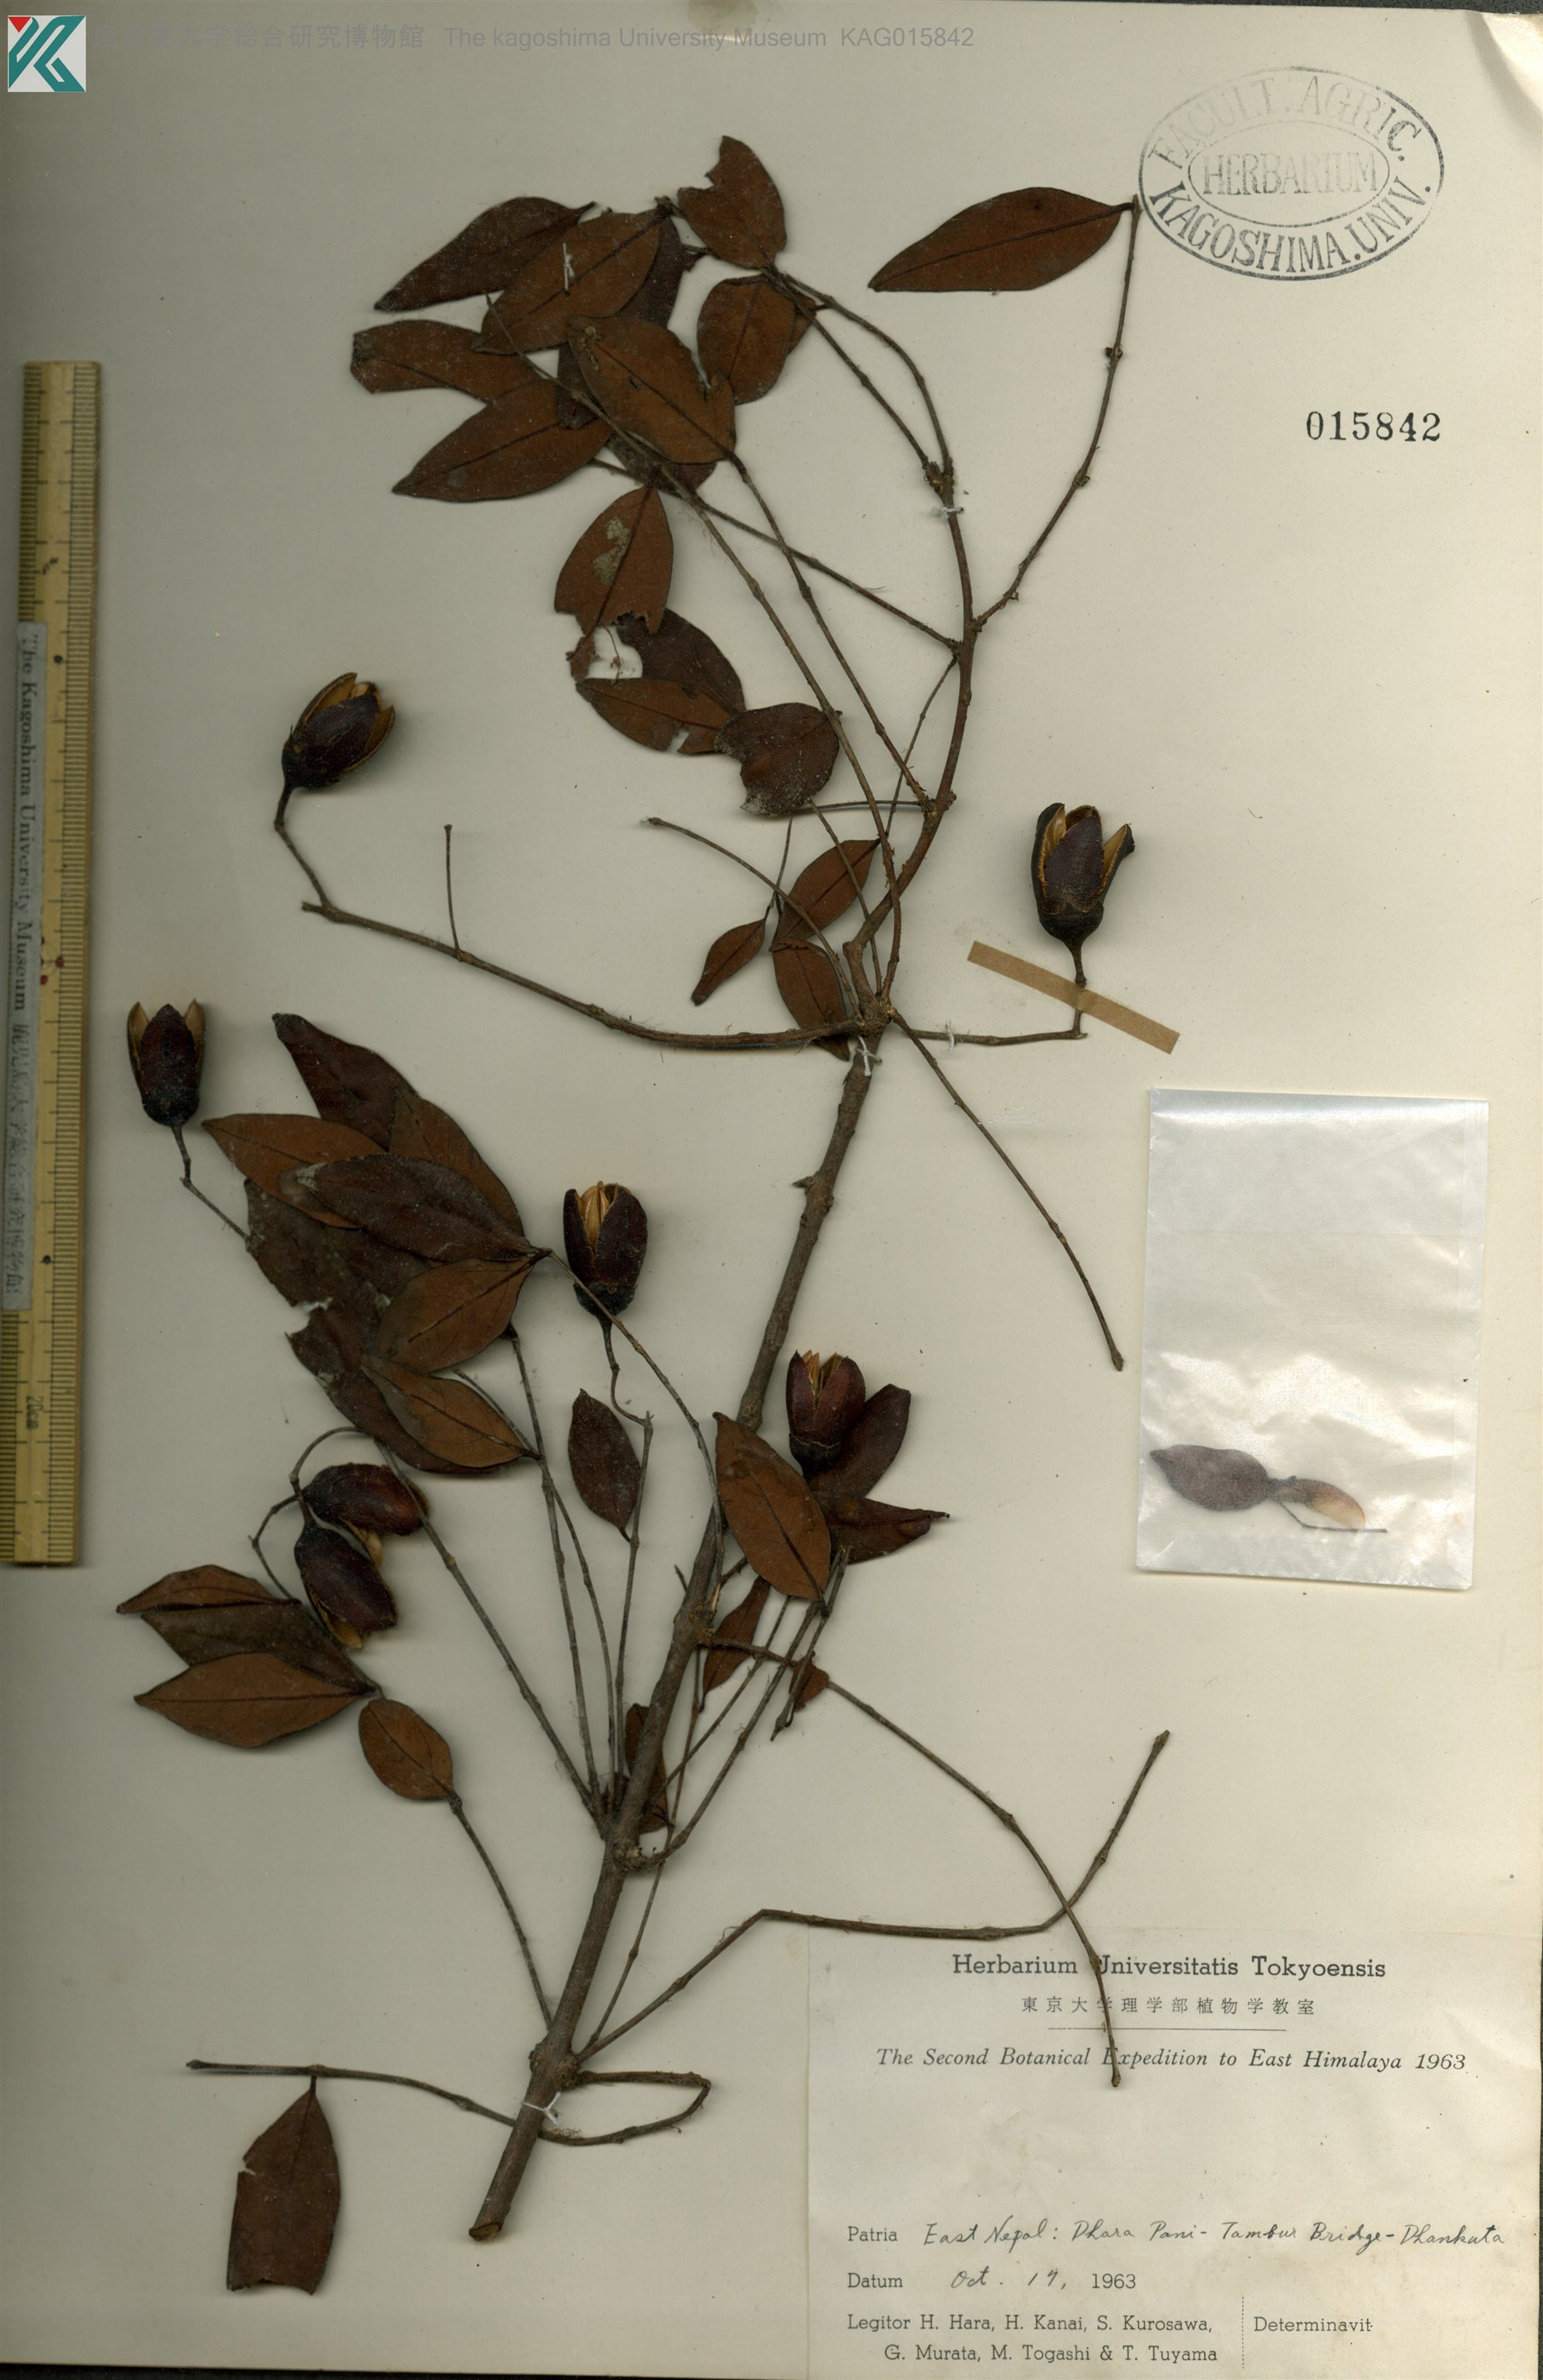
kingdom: Plantae
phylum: Tracheophyta
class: Magnoliopsida
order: Malpighiales
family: Hypericaceae
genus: Cratoxylum
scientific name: Cratoxylum
